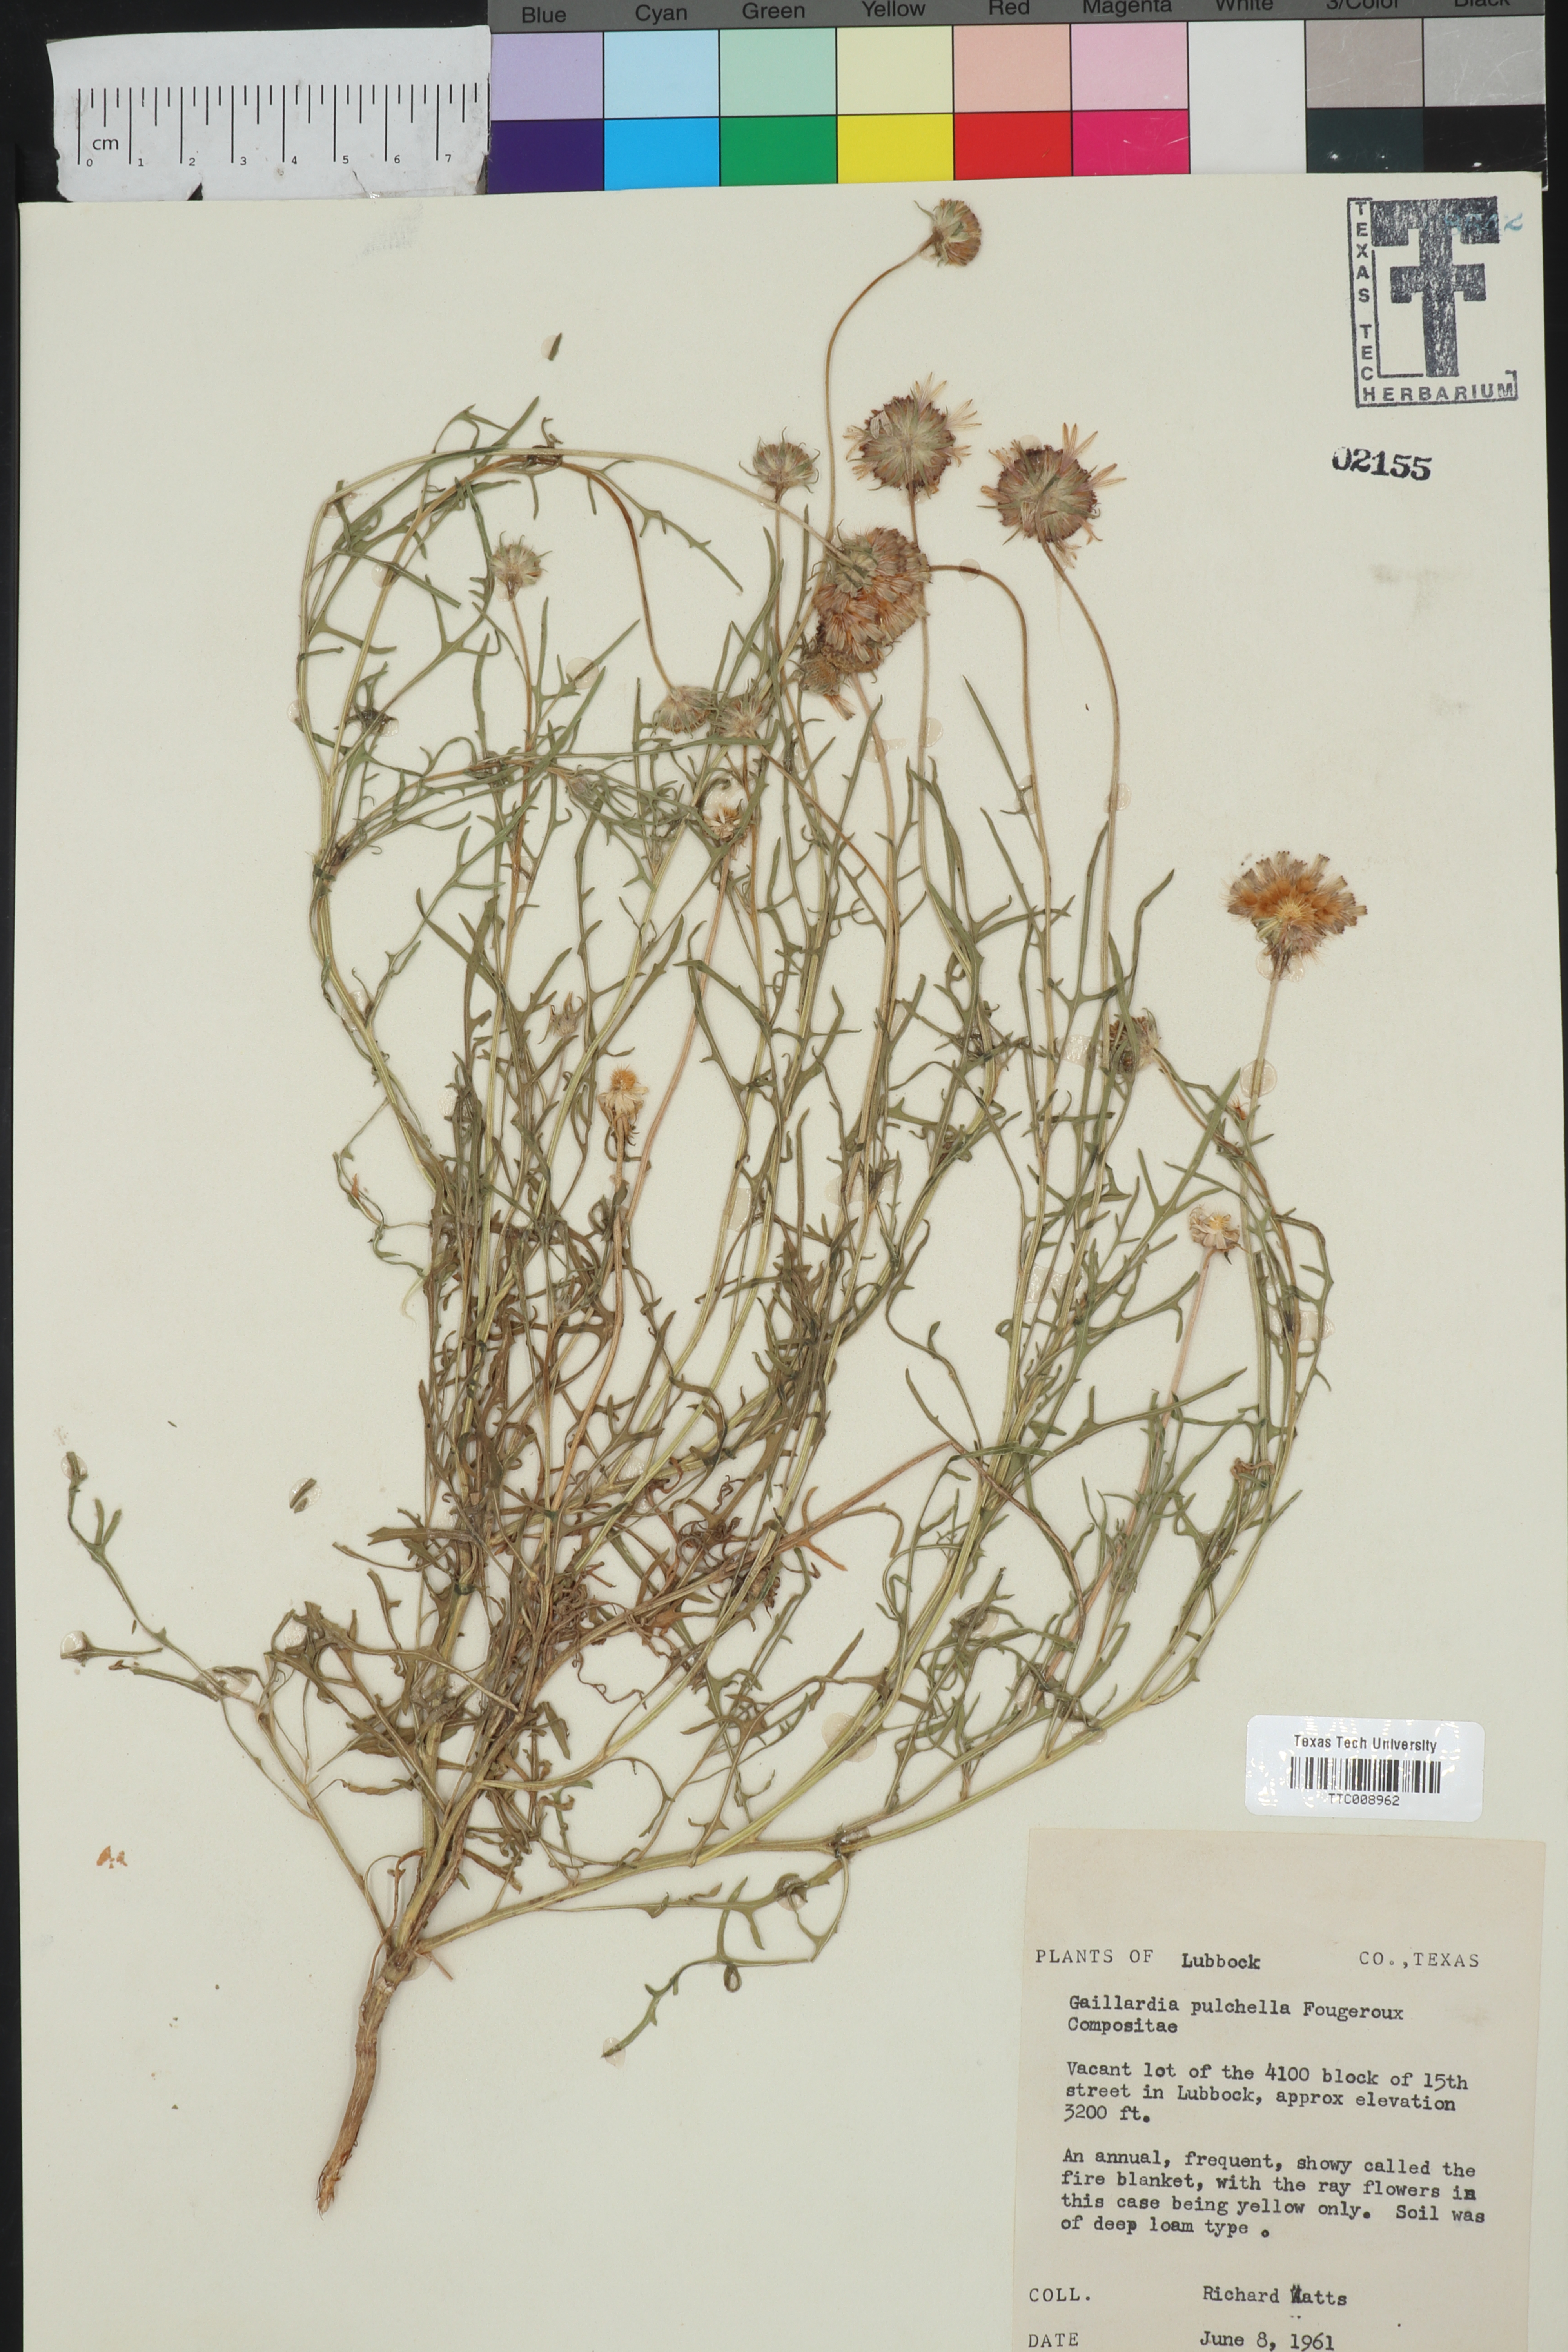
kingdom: Plantae
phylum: Tracheophyta
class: Magnoliopsida
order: Asterales
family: Asteraceae
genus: Gaillardia
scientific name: Gaillardia pulchella
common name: Firewheel
